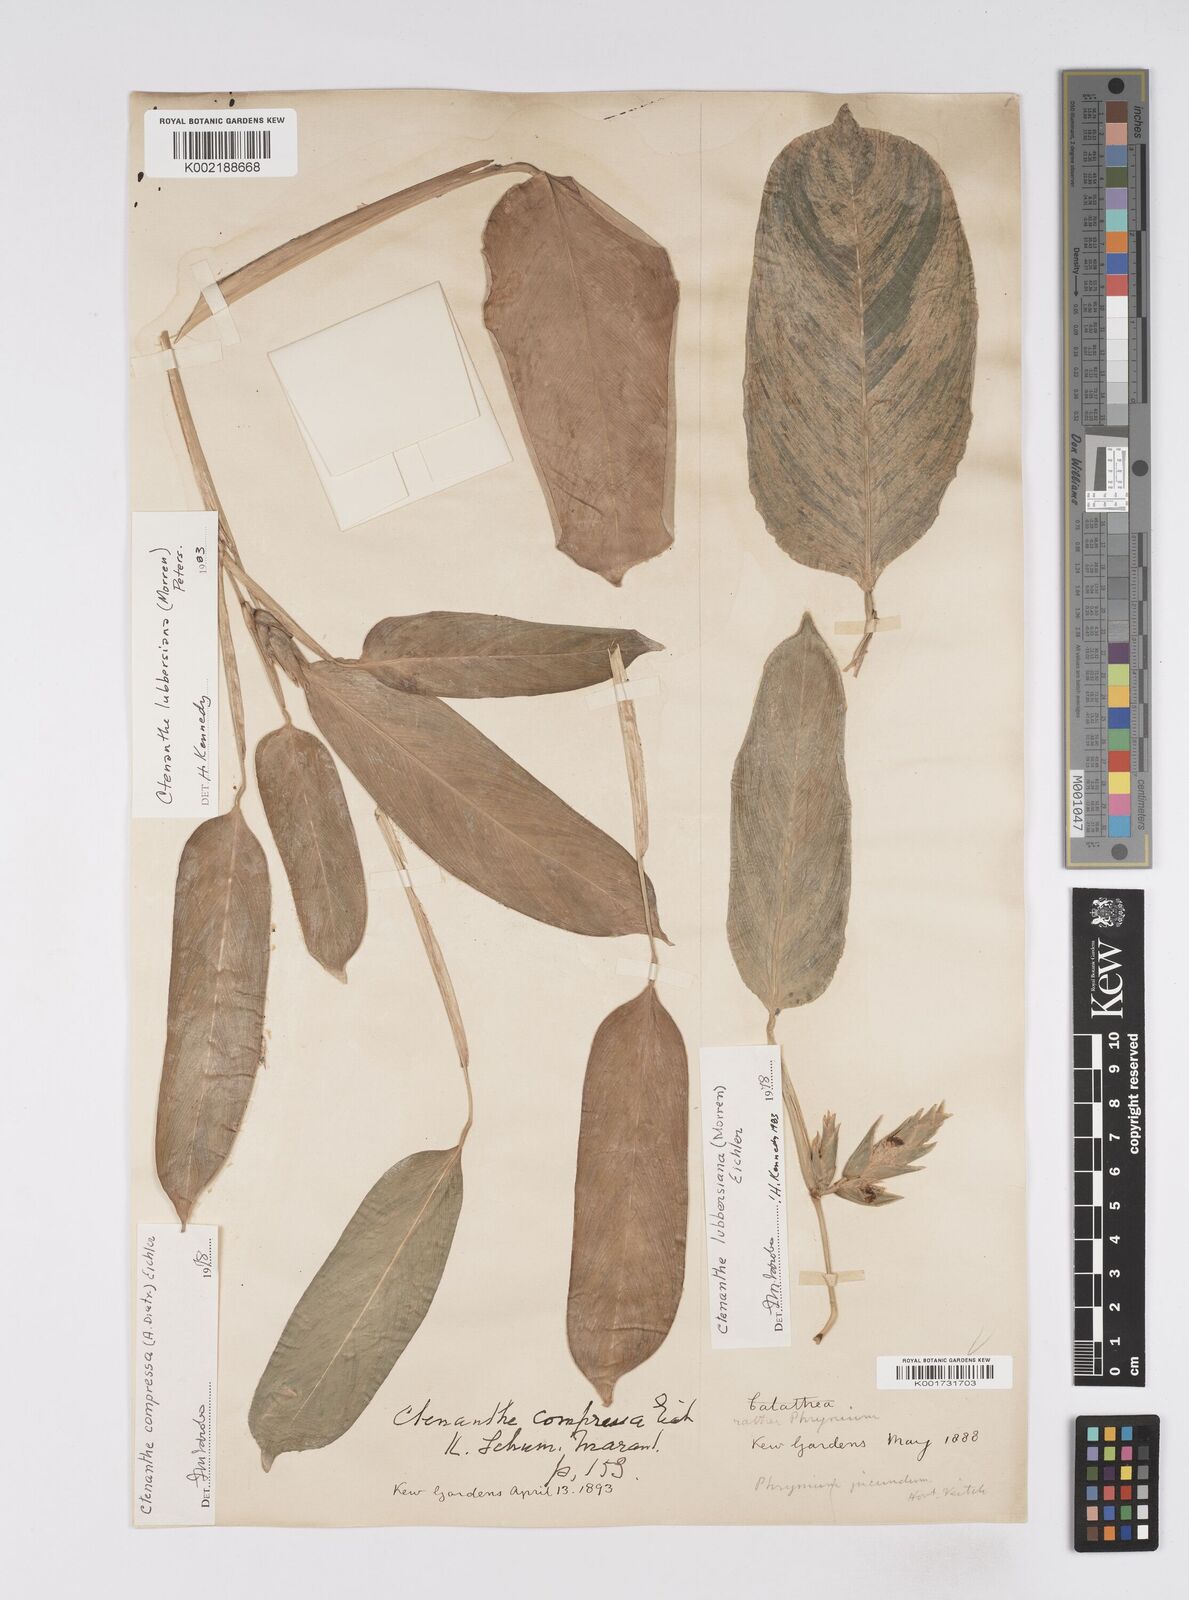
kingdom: Plantae
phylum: Tracheophyta
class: Liliopsida
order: Zingiberales
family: Marantaceae
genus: Ctenanthe
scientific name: Ctenanthe lubbersiana
